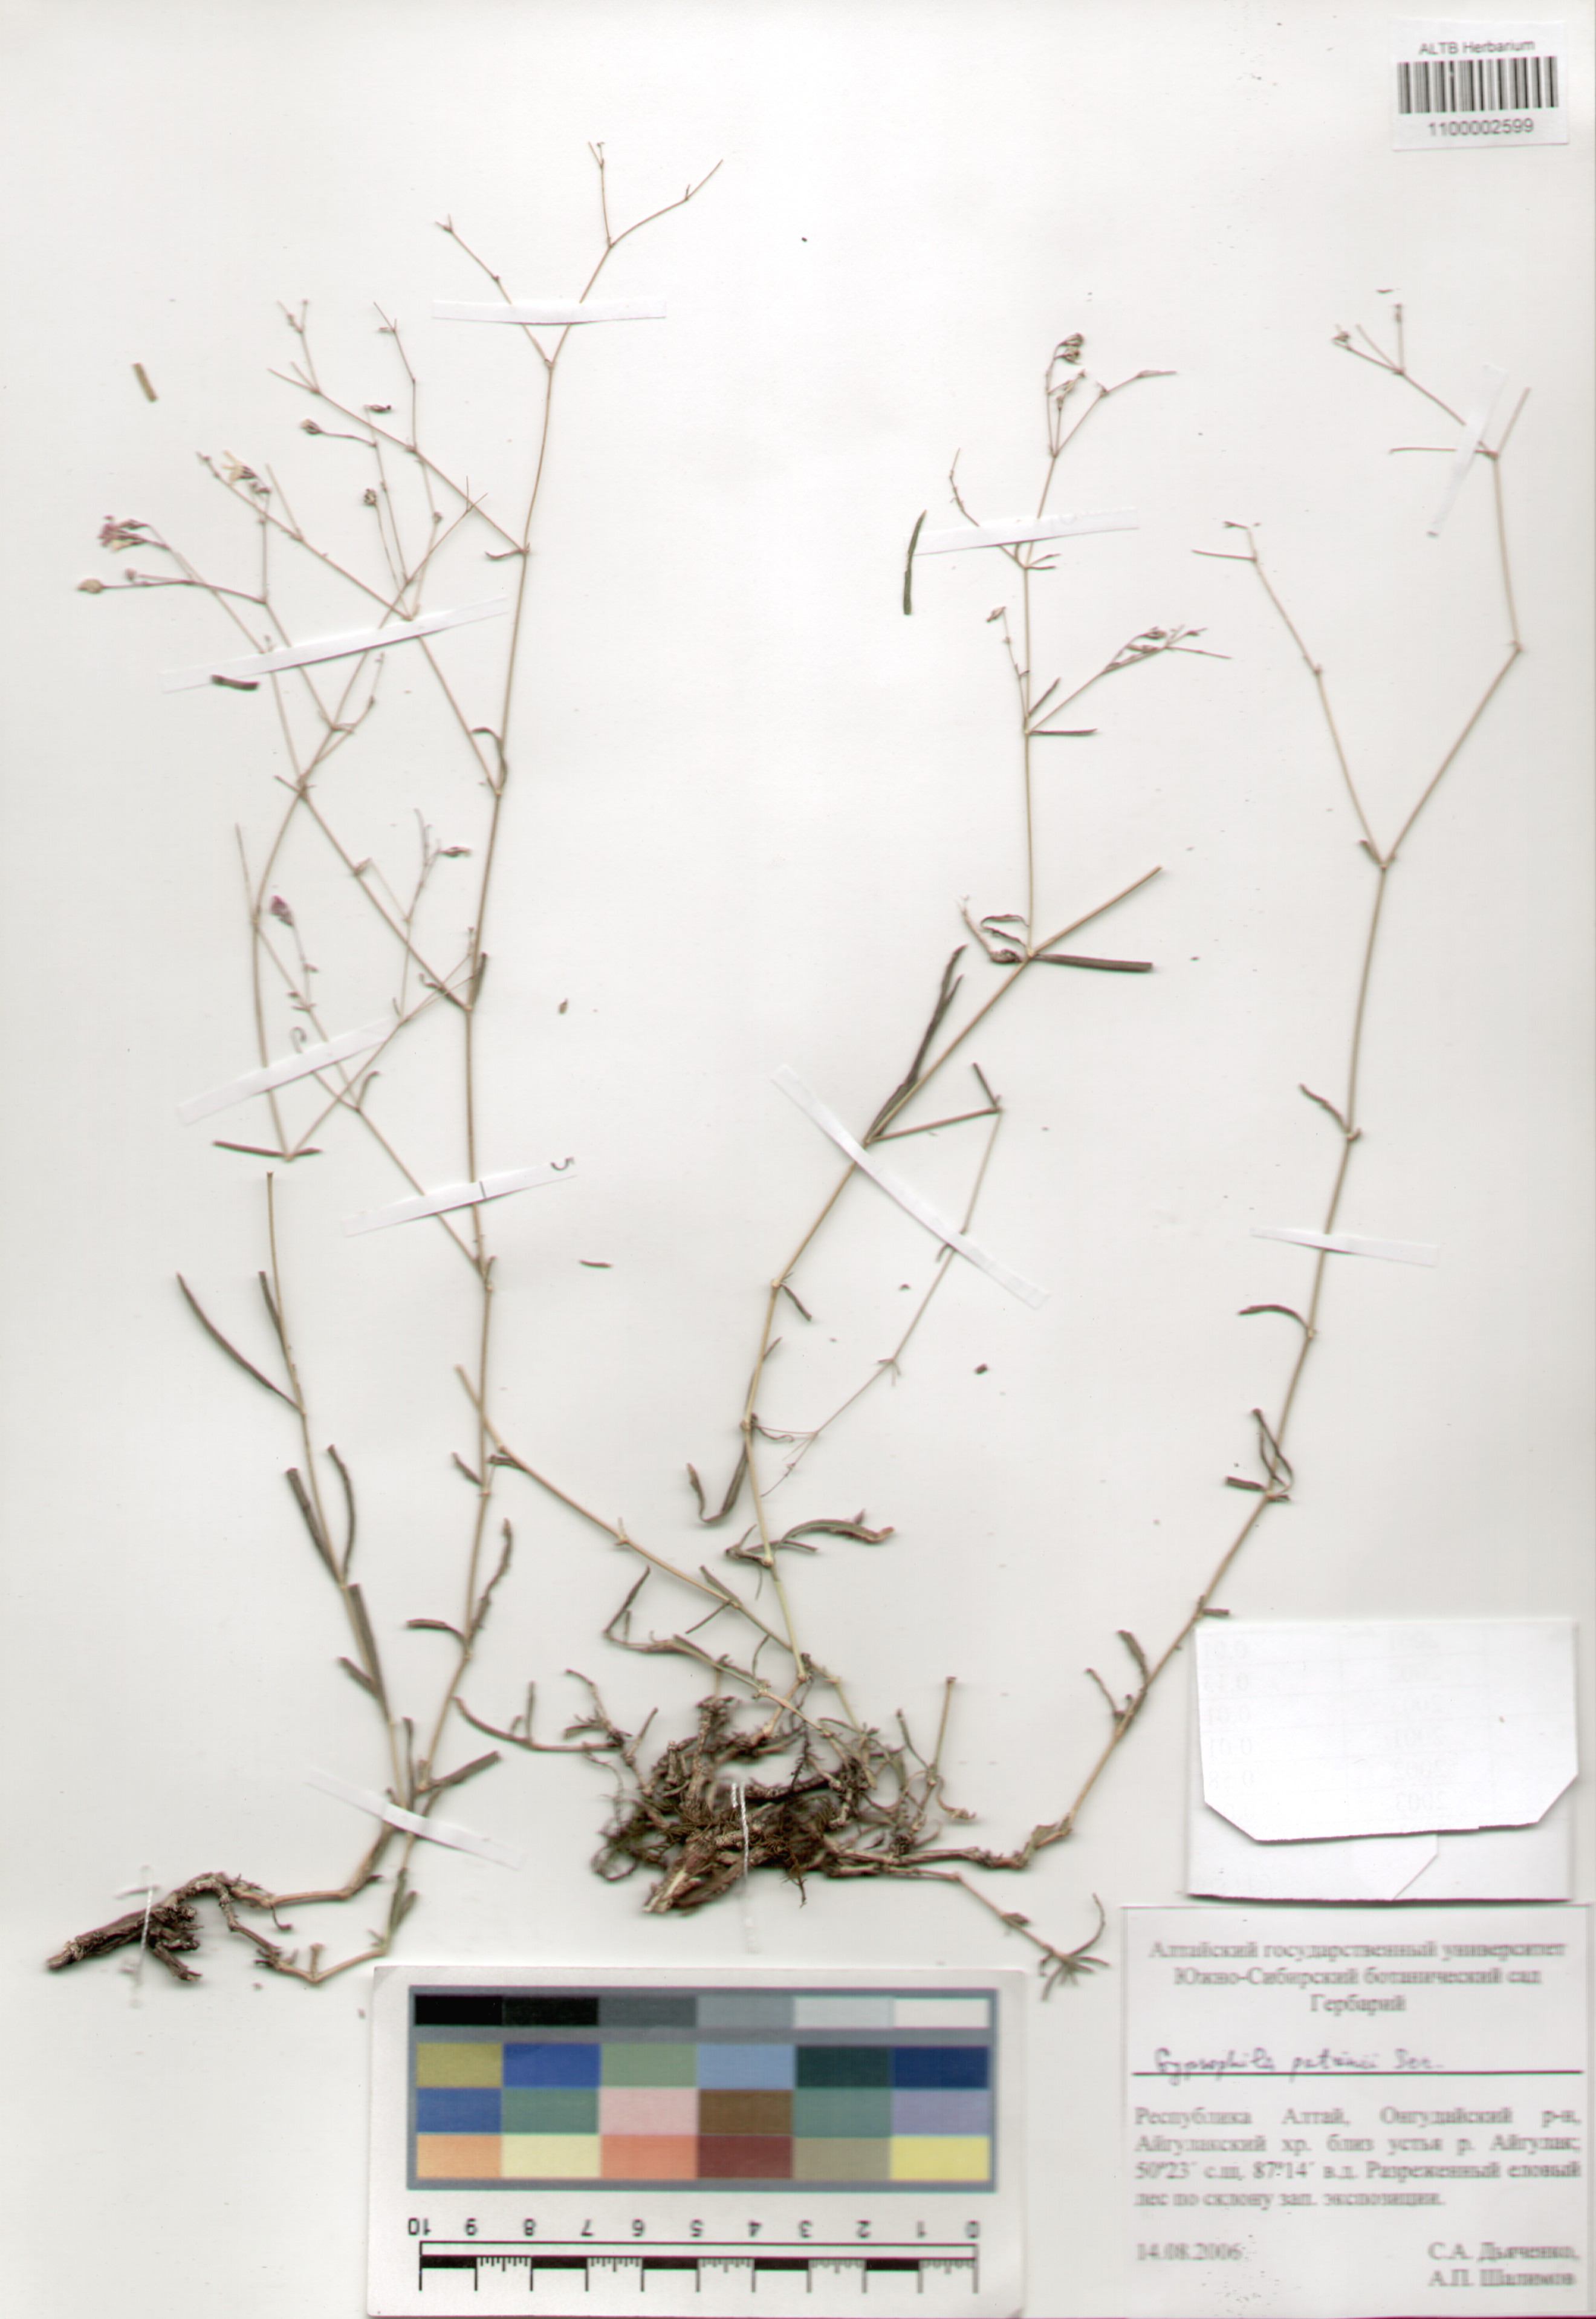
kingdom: Plantae
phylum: Tracheophyta
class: Magnoliopsida
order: Caryophyllales
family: Caryophyllaceae
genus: Gypsophila
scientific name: Gypsophila patrinii
